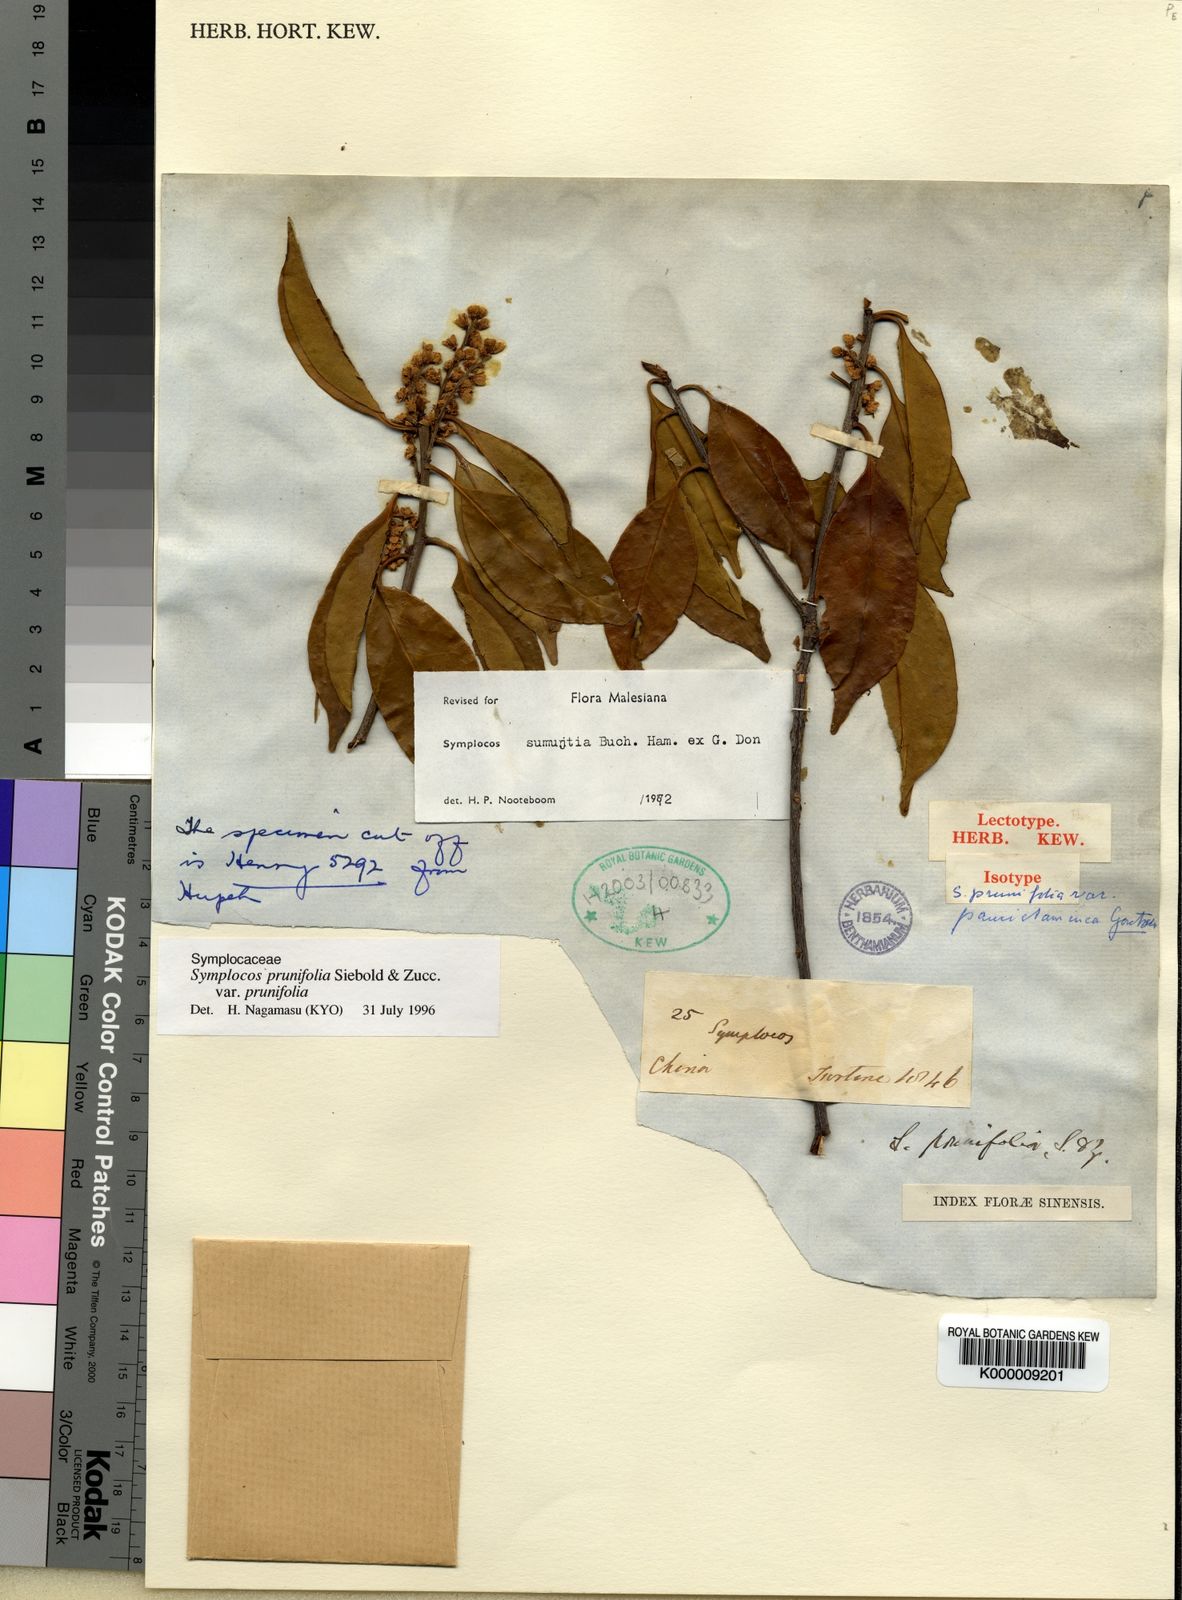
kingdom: Plantae
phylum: Tracheophyta
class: Magnoliopsida
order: Ericales
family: Symplocaceae
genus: Symplocos
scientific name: Symplocos sumuntia
